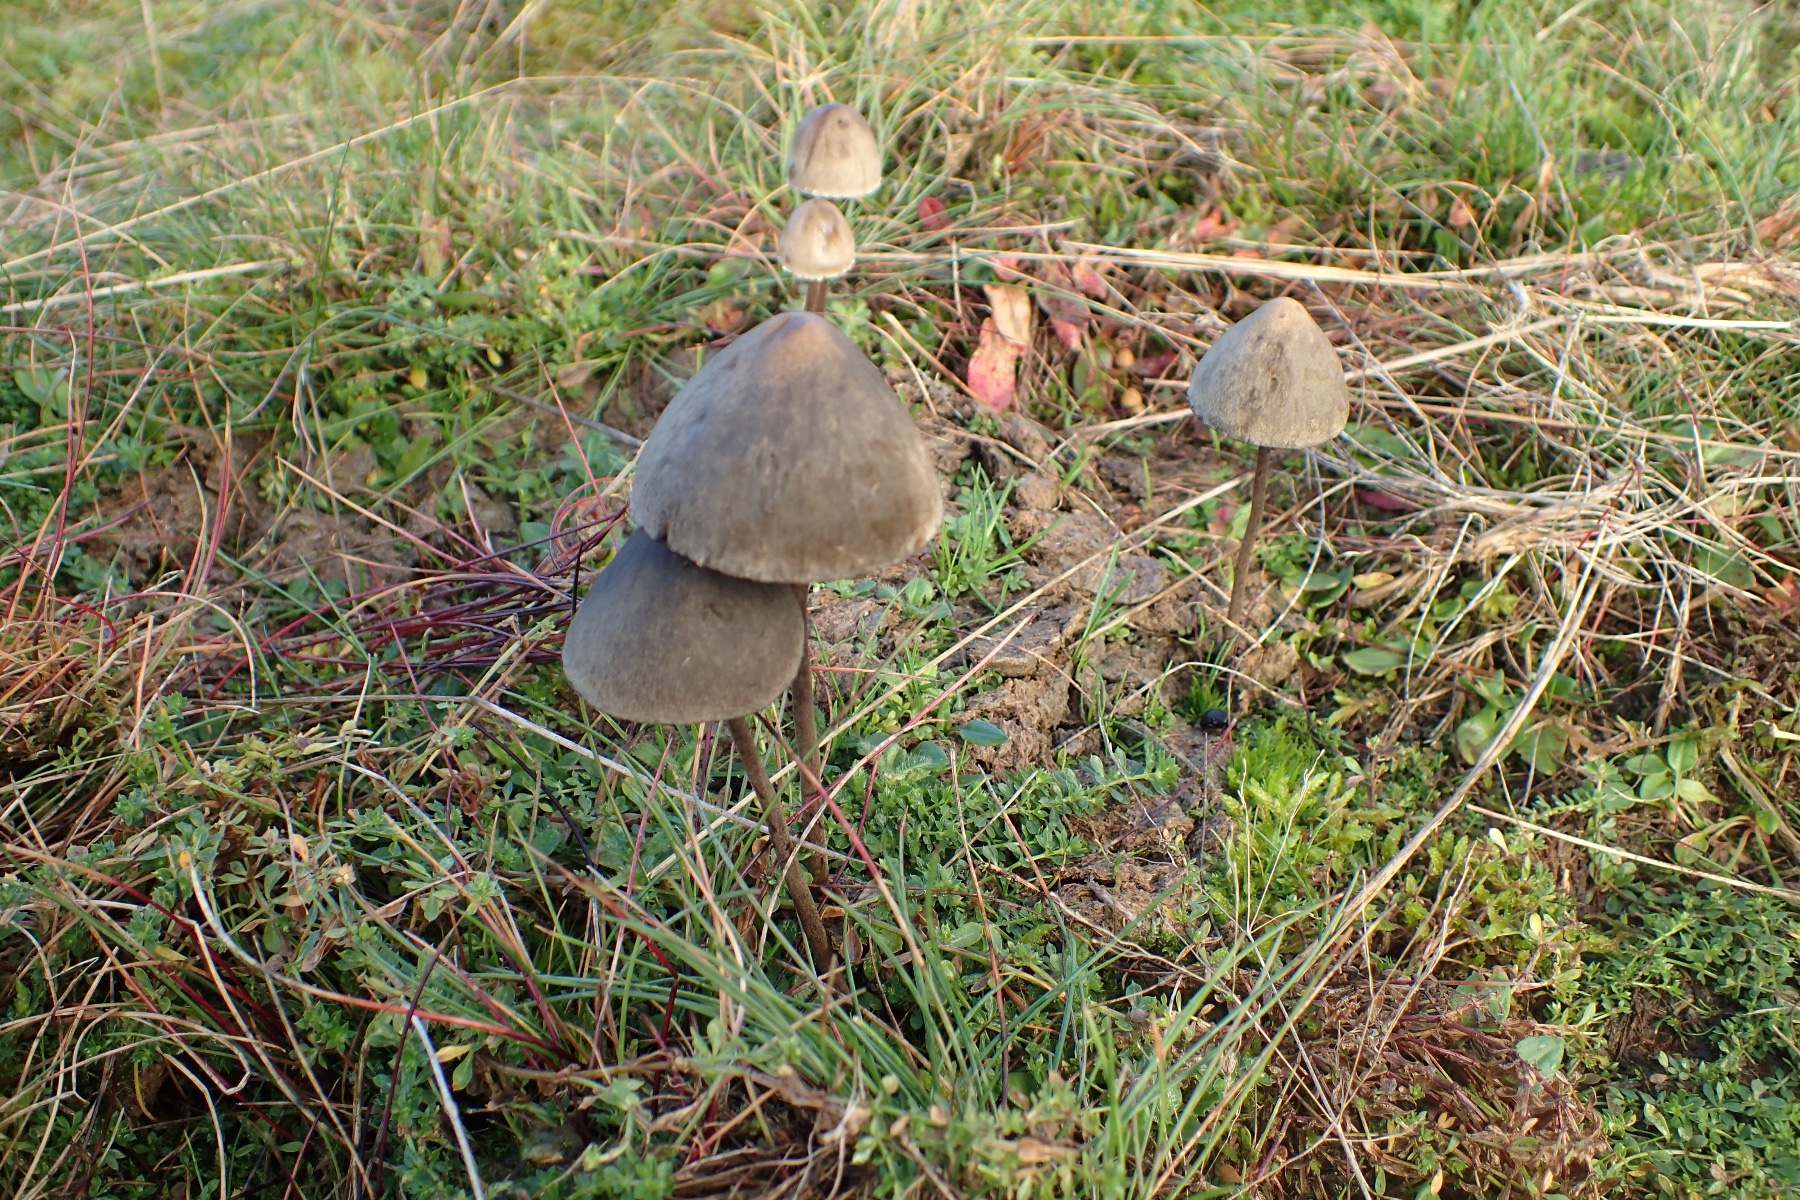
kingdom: Fungi
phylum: Basidiomycota
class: Agaricomycetes
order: Agaricales
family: Bolbitiaceae
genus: Panaeolus
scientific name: Panaeolus papilionaceus
